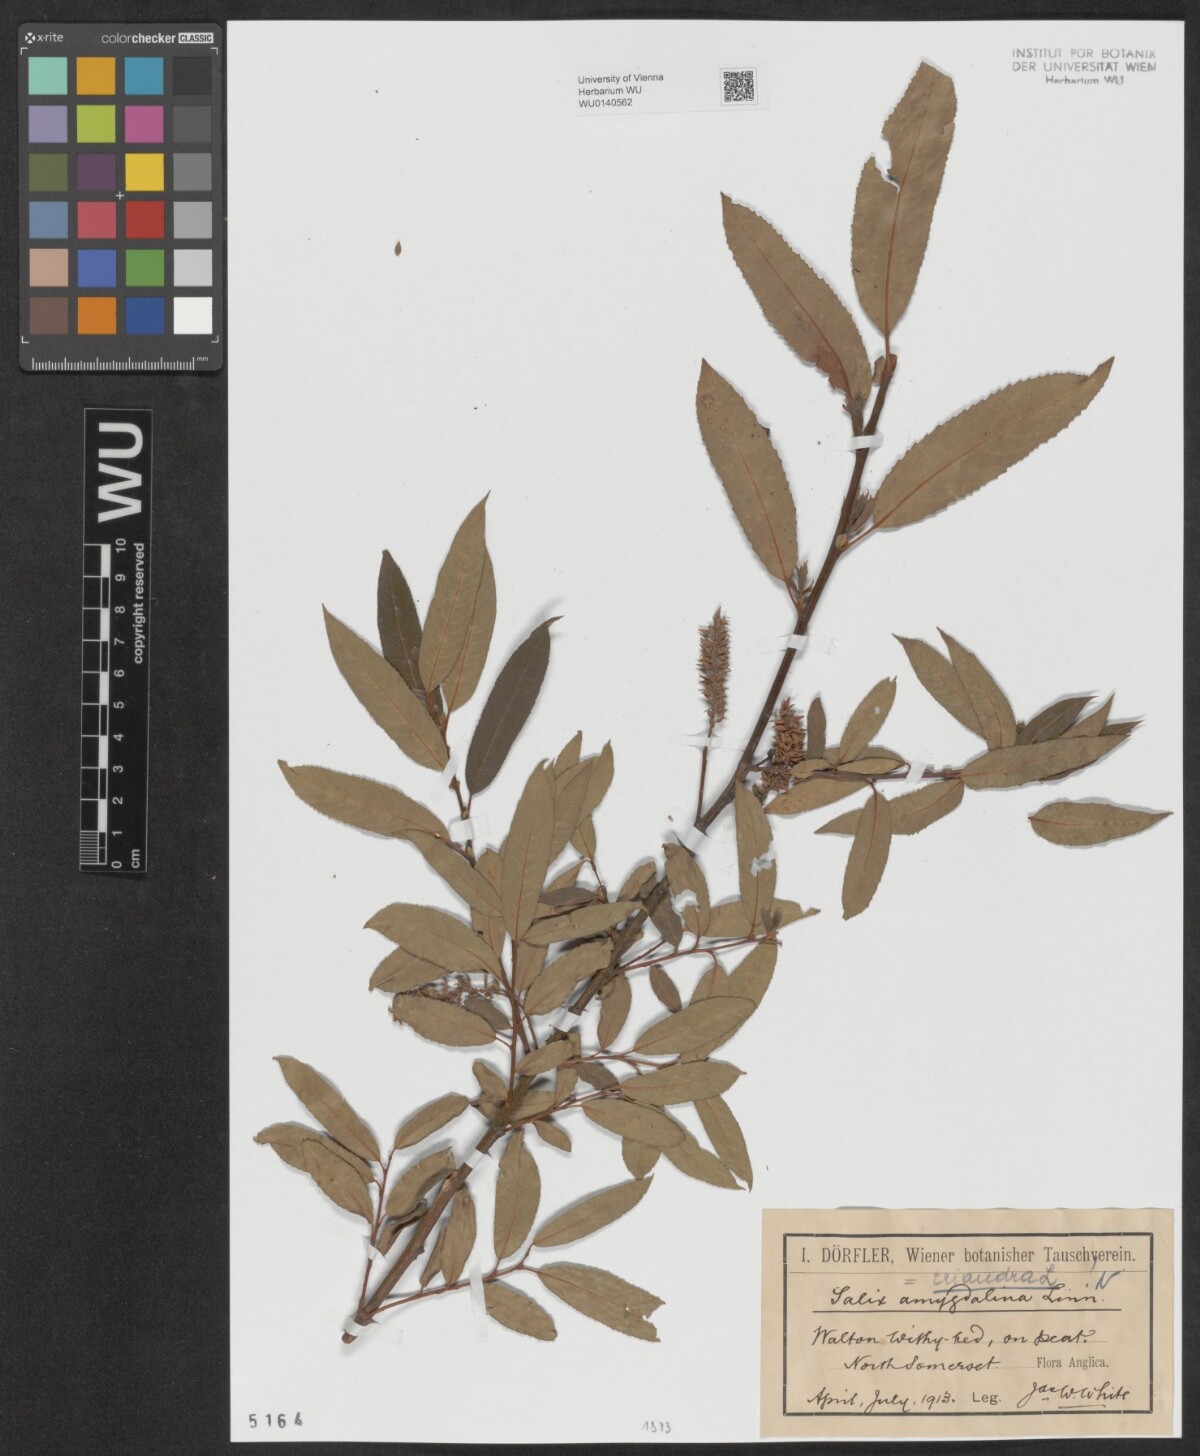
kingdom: Plantae
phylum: Tracheophyta
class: Magnoliopsida
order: Malpighiales
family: Salicaceae
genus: Salix
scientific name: Salix triandra
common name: Almond willow
